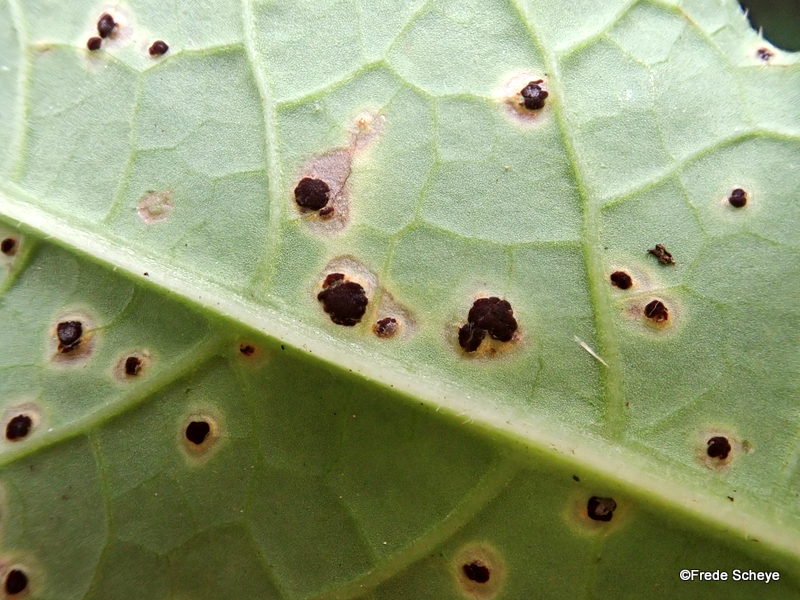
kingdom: Fungi
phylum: Basidiomycota
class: Pucciniomycetes
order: Pucciniales
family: Pucciniaceae
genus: Puccinia
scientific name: Puccinia cnici-oleracei
